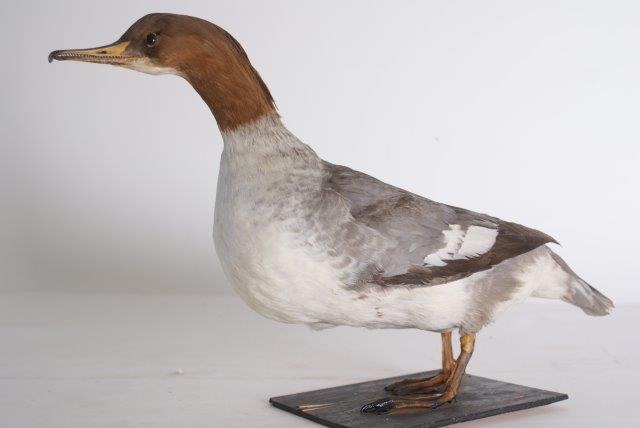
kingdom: Animalia
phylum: Chordata
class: Aves
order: Anseriformes
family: Anatidae
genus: Mergus
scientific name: Mergus merganser
